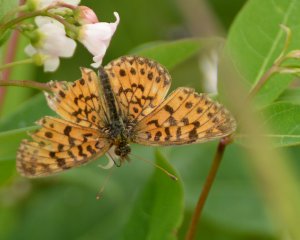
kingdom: Animalia
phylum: Arthropoda
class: Insecta
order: Lepidoptera
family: Nymphalidae
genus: Boloria
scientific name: Boloria selene
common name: Silver-bordered Fritillary
